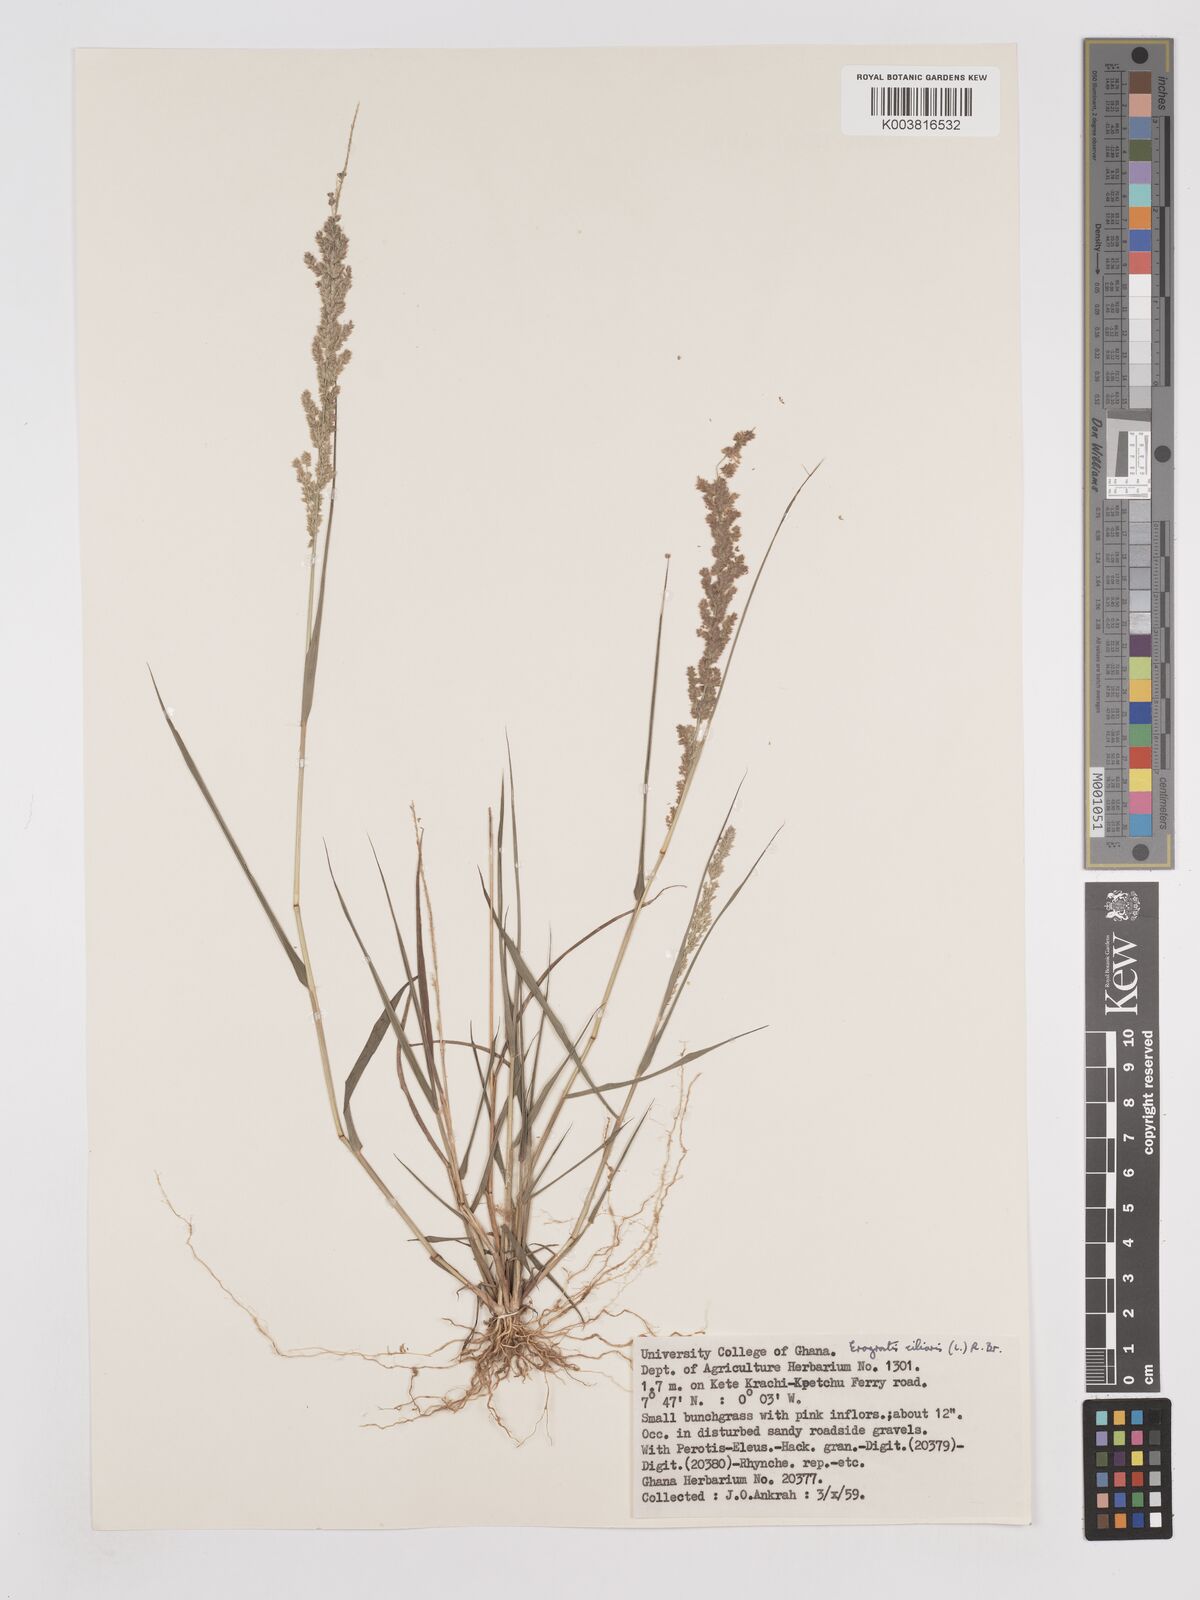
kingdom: Plantae
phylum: Tracheophyta
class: Liliopsida
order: Poales
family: Poaceae
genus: Eragrostis
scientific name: Eragrostis ciliaris
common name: Gophertail lovegrass
